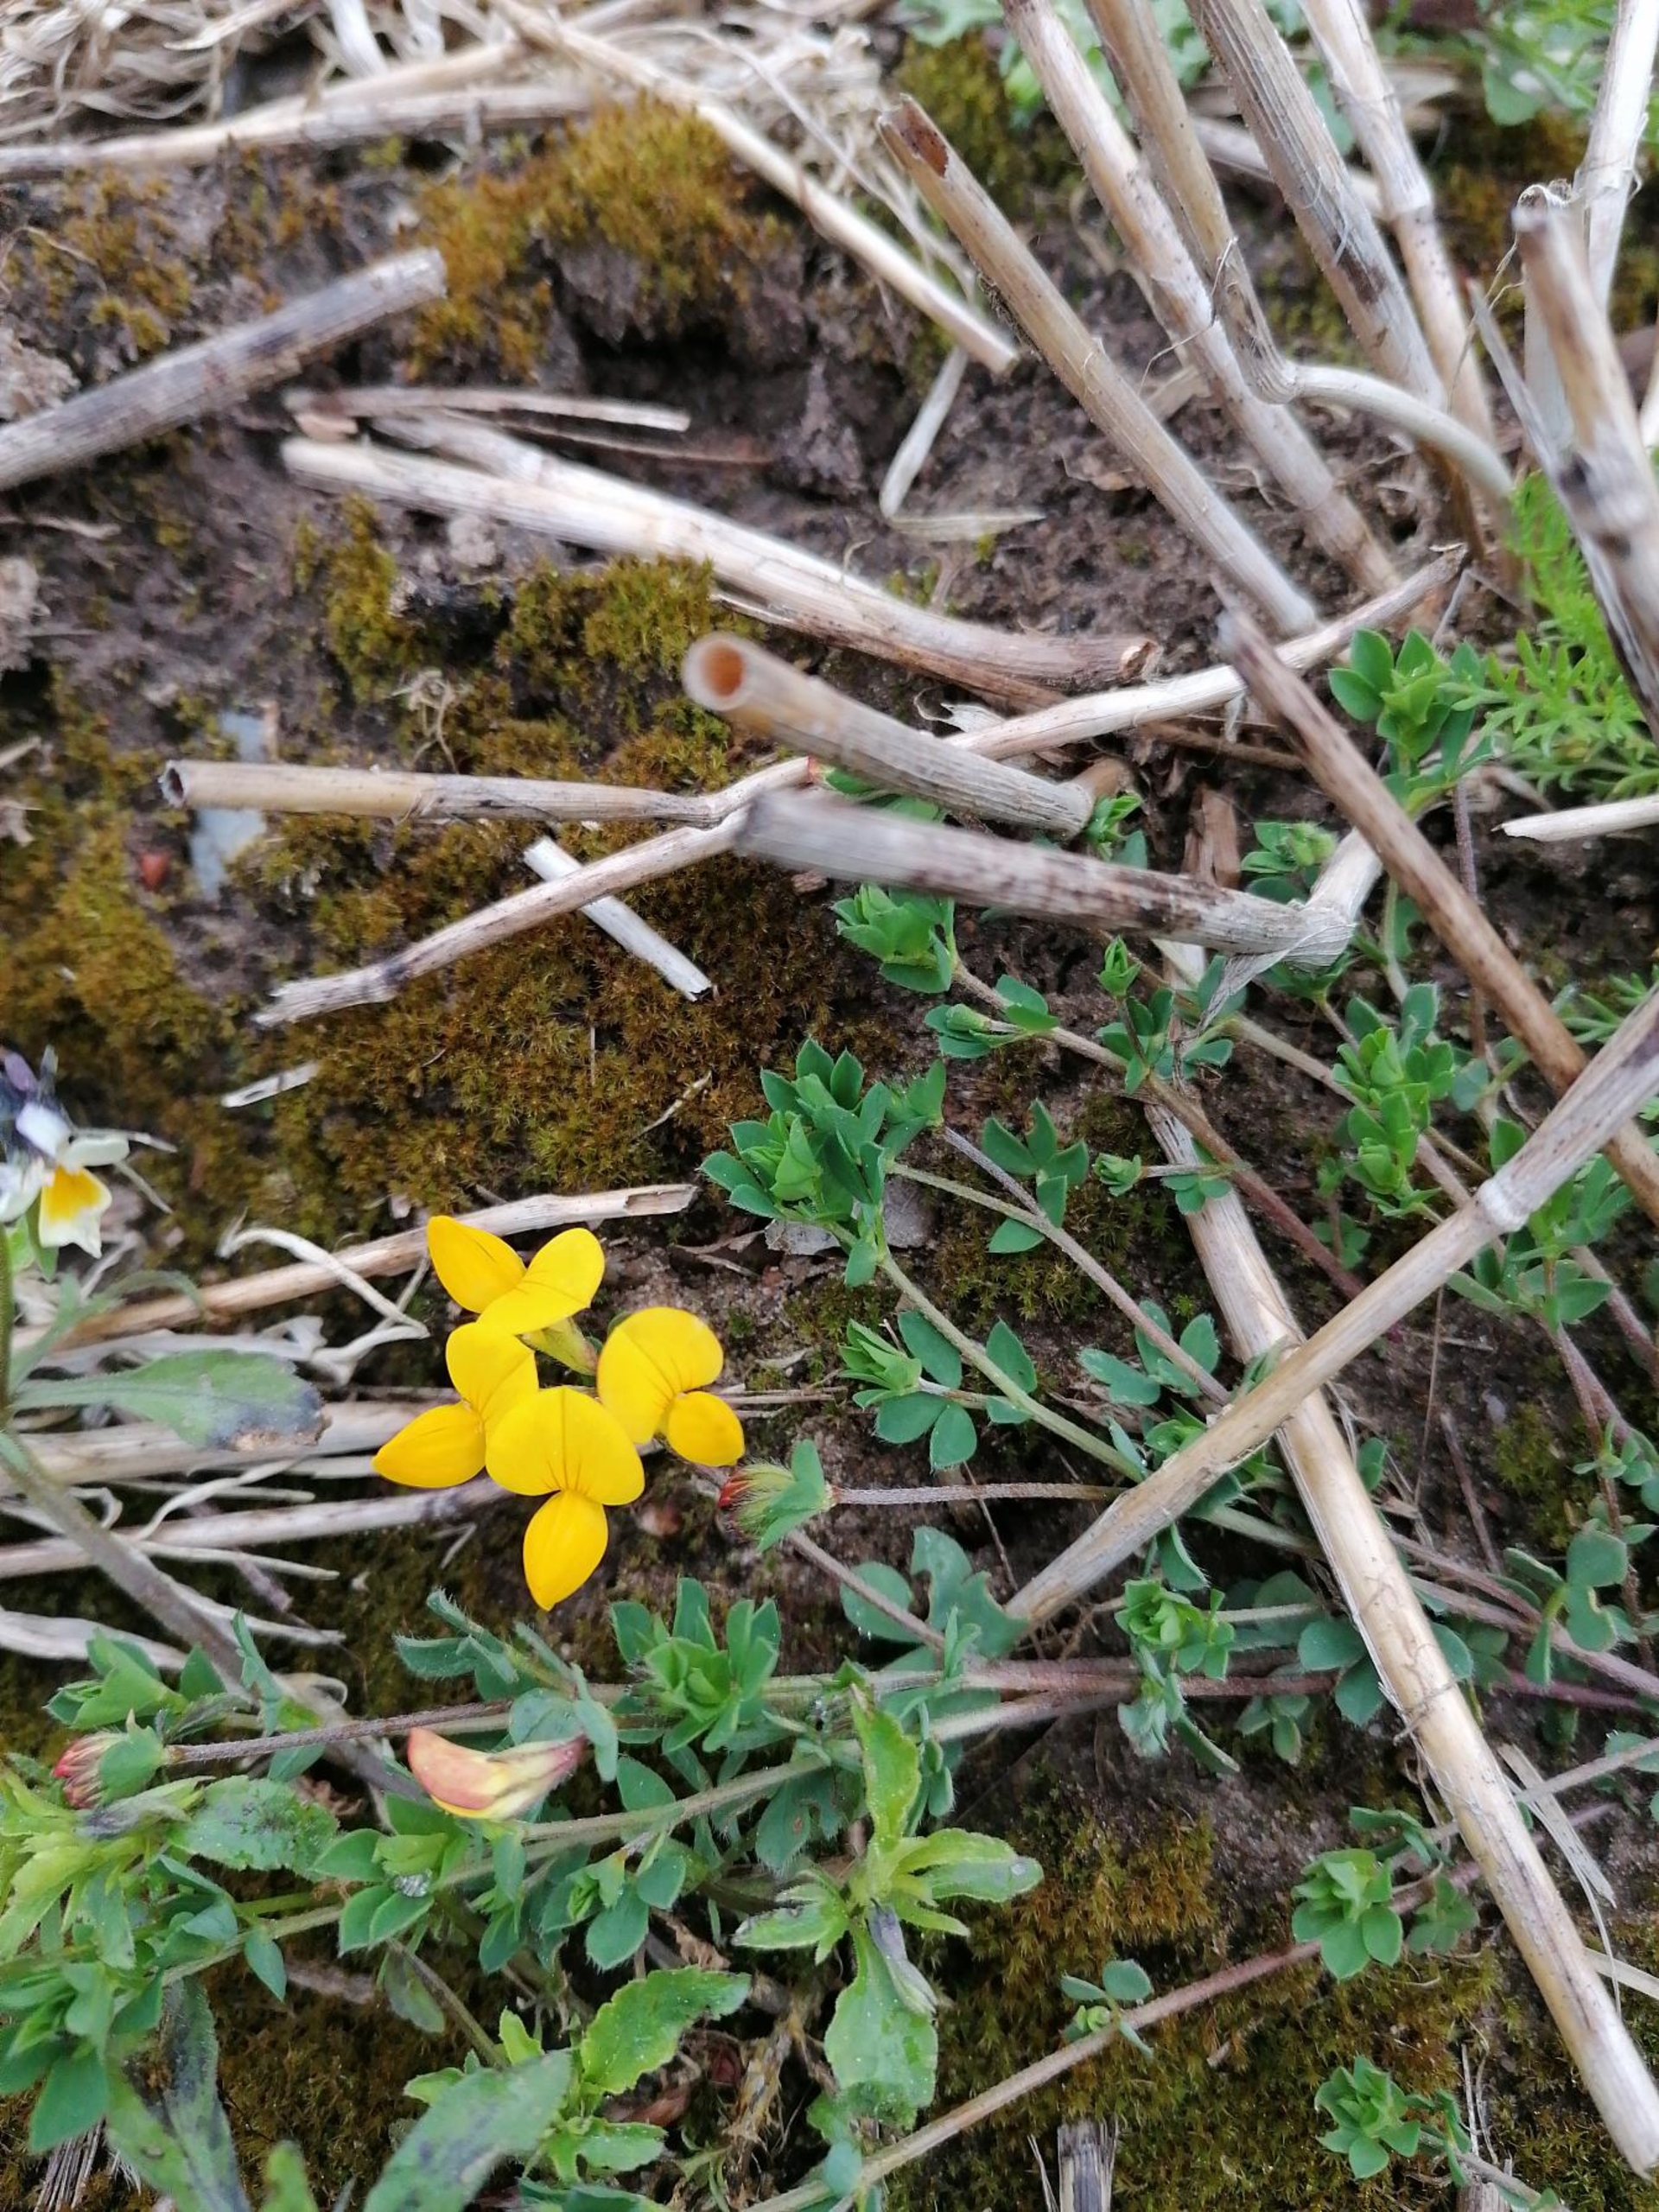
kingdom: Plantae
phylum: Tracheophyta
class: Magnoliopsida
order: Fabales
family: Fabaceae
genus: Lotus
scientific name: Lotus corniculatus
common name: Almindelig kællingetand
